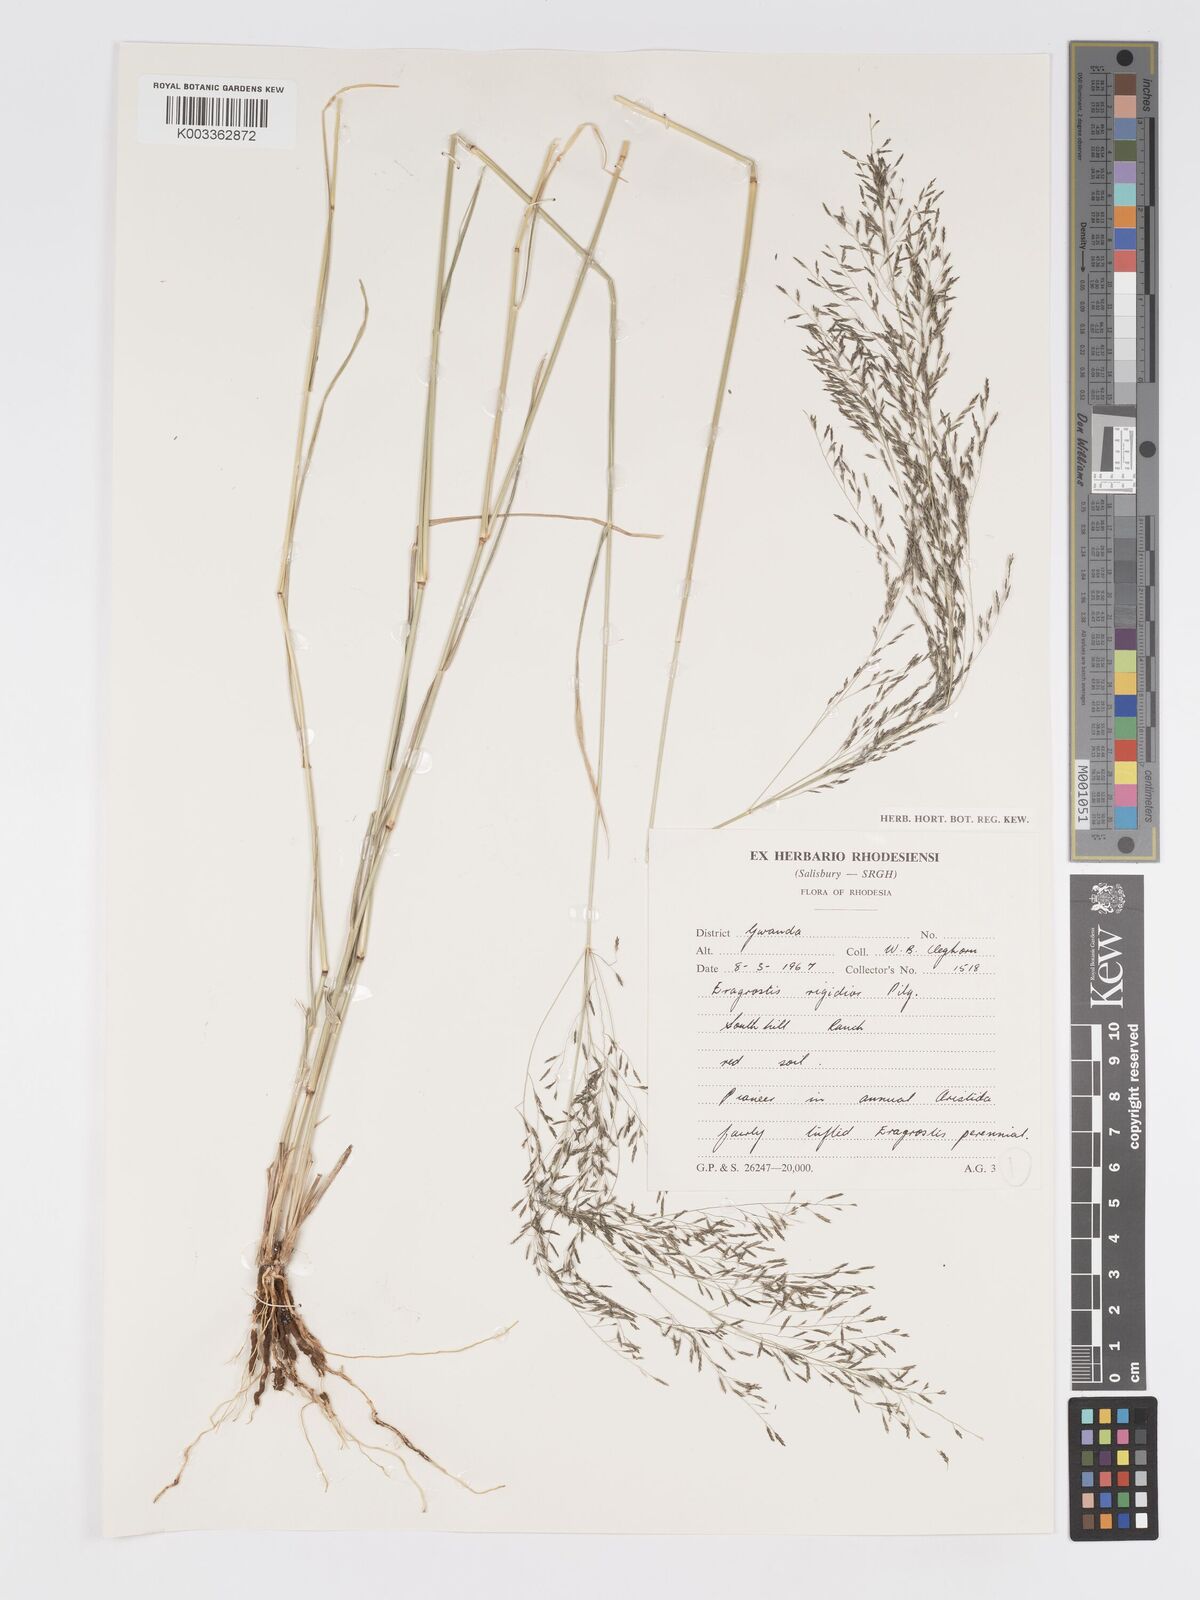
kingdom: Plantae
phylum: Tracheophyta
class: Liliopsida
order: Poales
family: Poaceae
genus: Eragrostis
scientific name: Eragrostis cylindriflora
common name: Cylinderflower lovegrass
